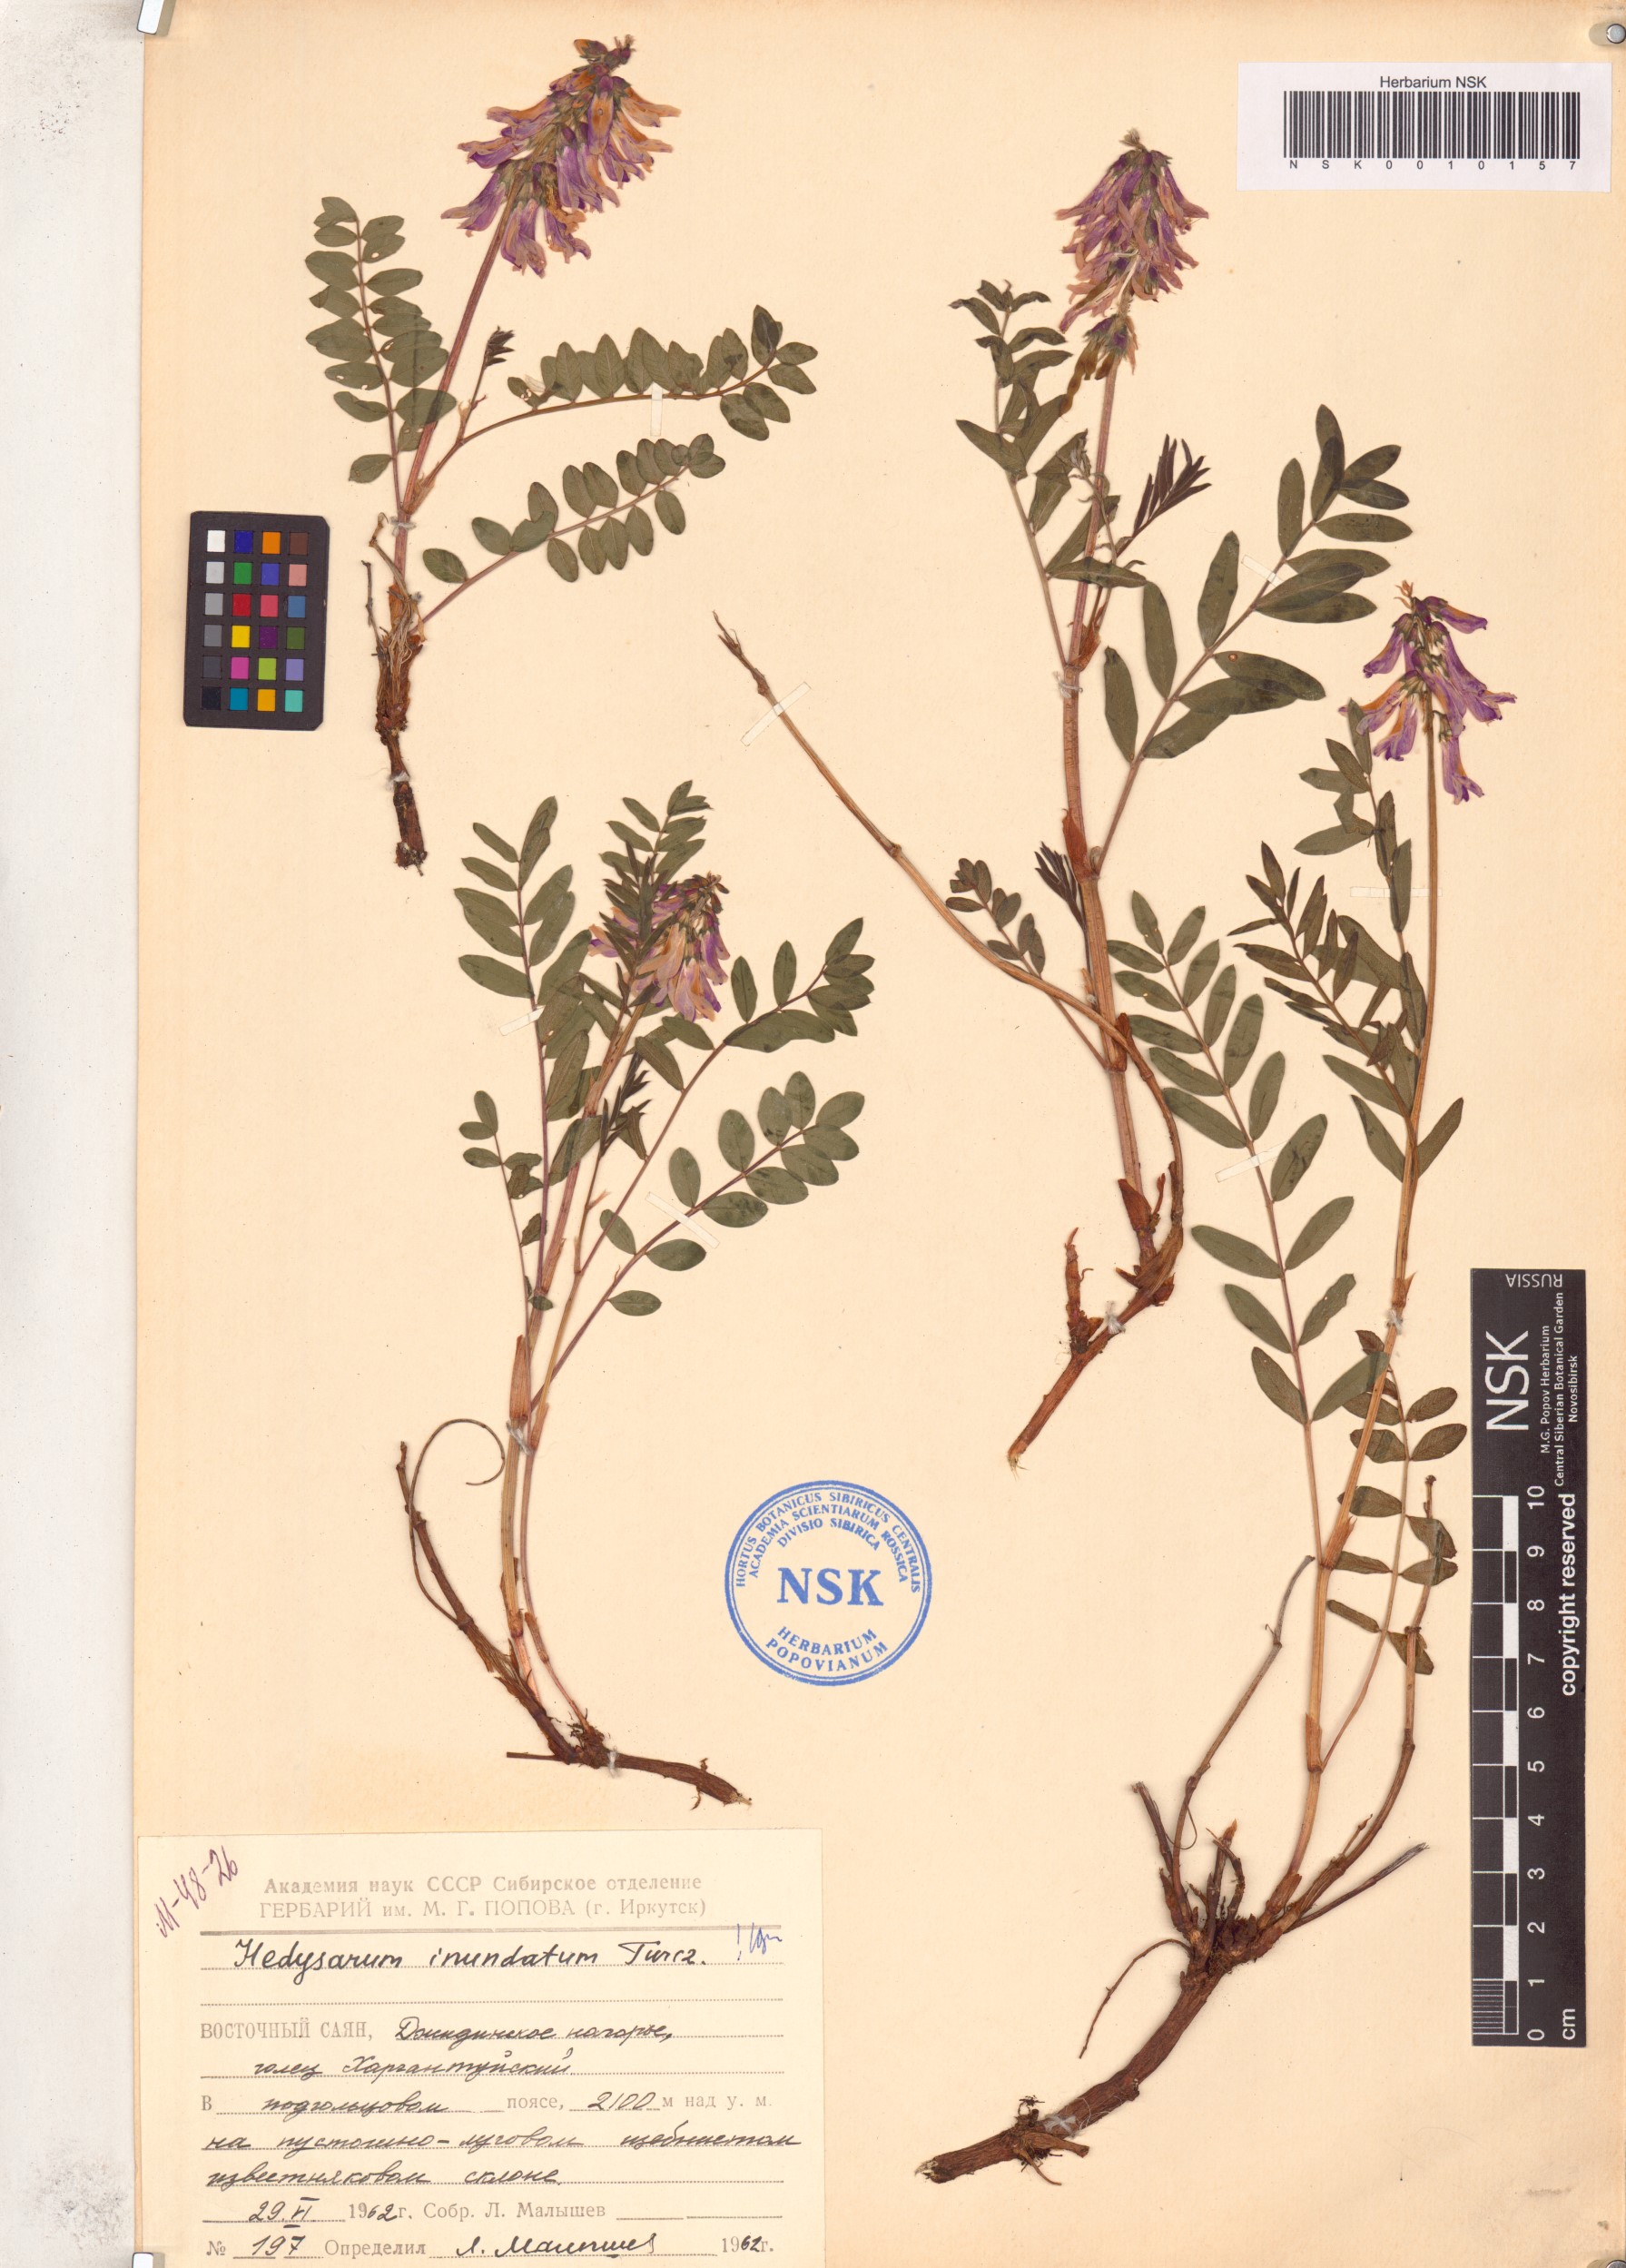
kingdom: Plantae
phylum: Tracheophyta
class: Magnoliopsida
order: Fabales
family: Fabaceae
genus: Hedysarum
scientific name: Hedysarum inundatum
